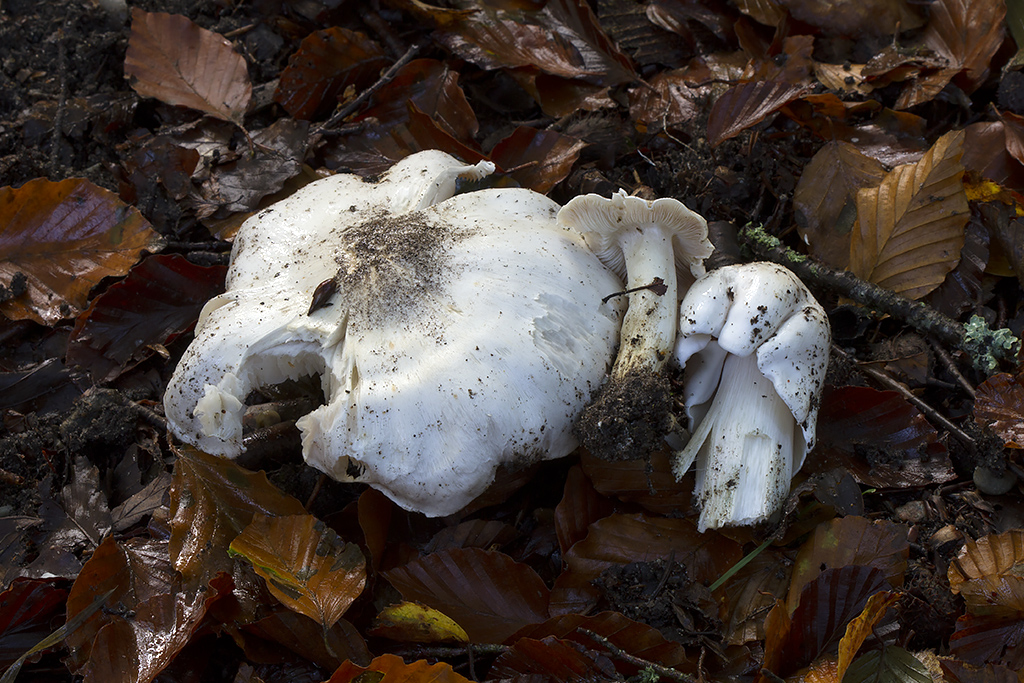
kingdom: Fungi
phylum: Basidiomycota
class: Agaricomycetes
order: Agaricales
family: Tricholomataceae
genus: Tricholoma
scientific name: Tricholoma columbetta
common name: silke-ridderhat
